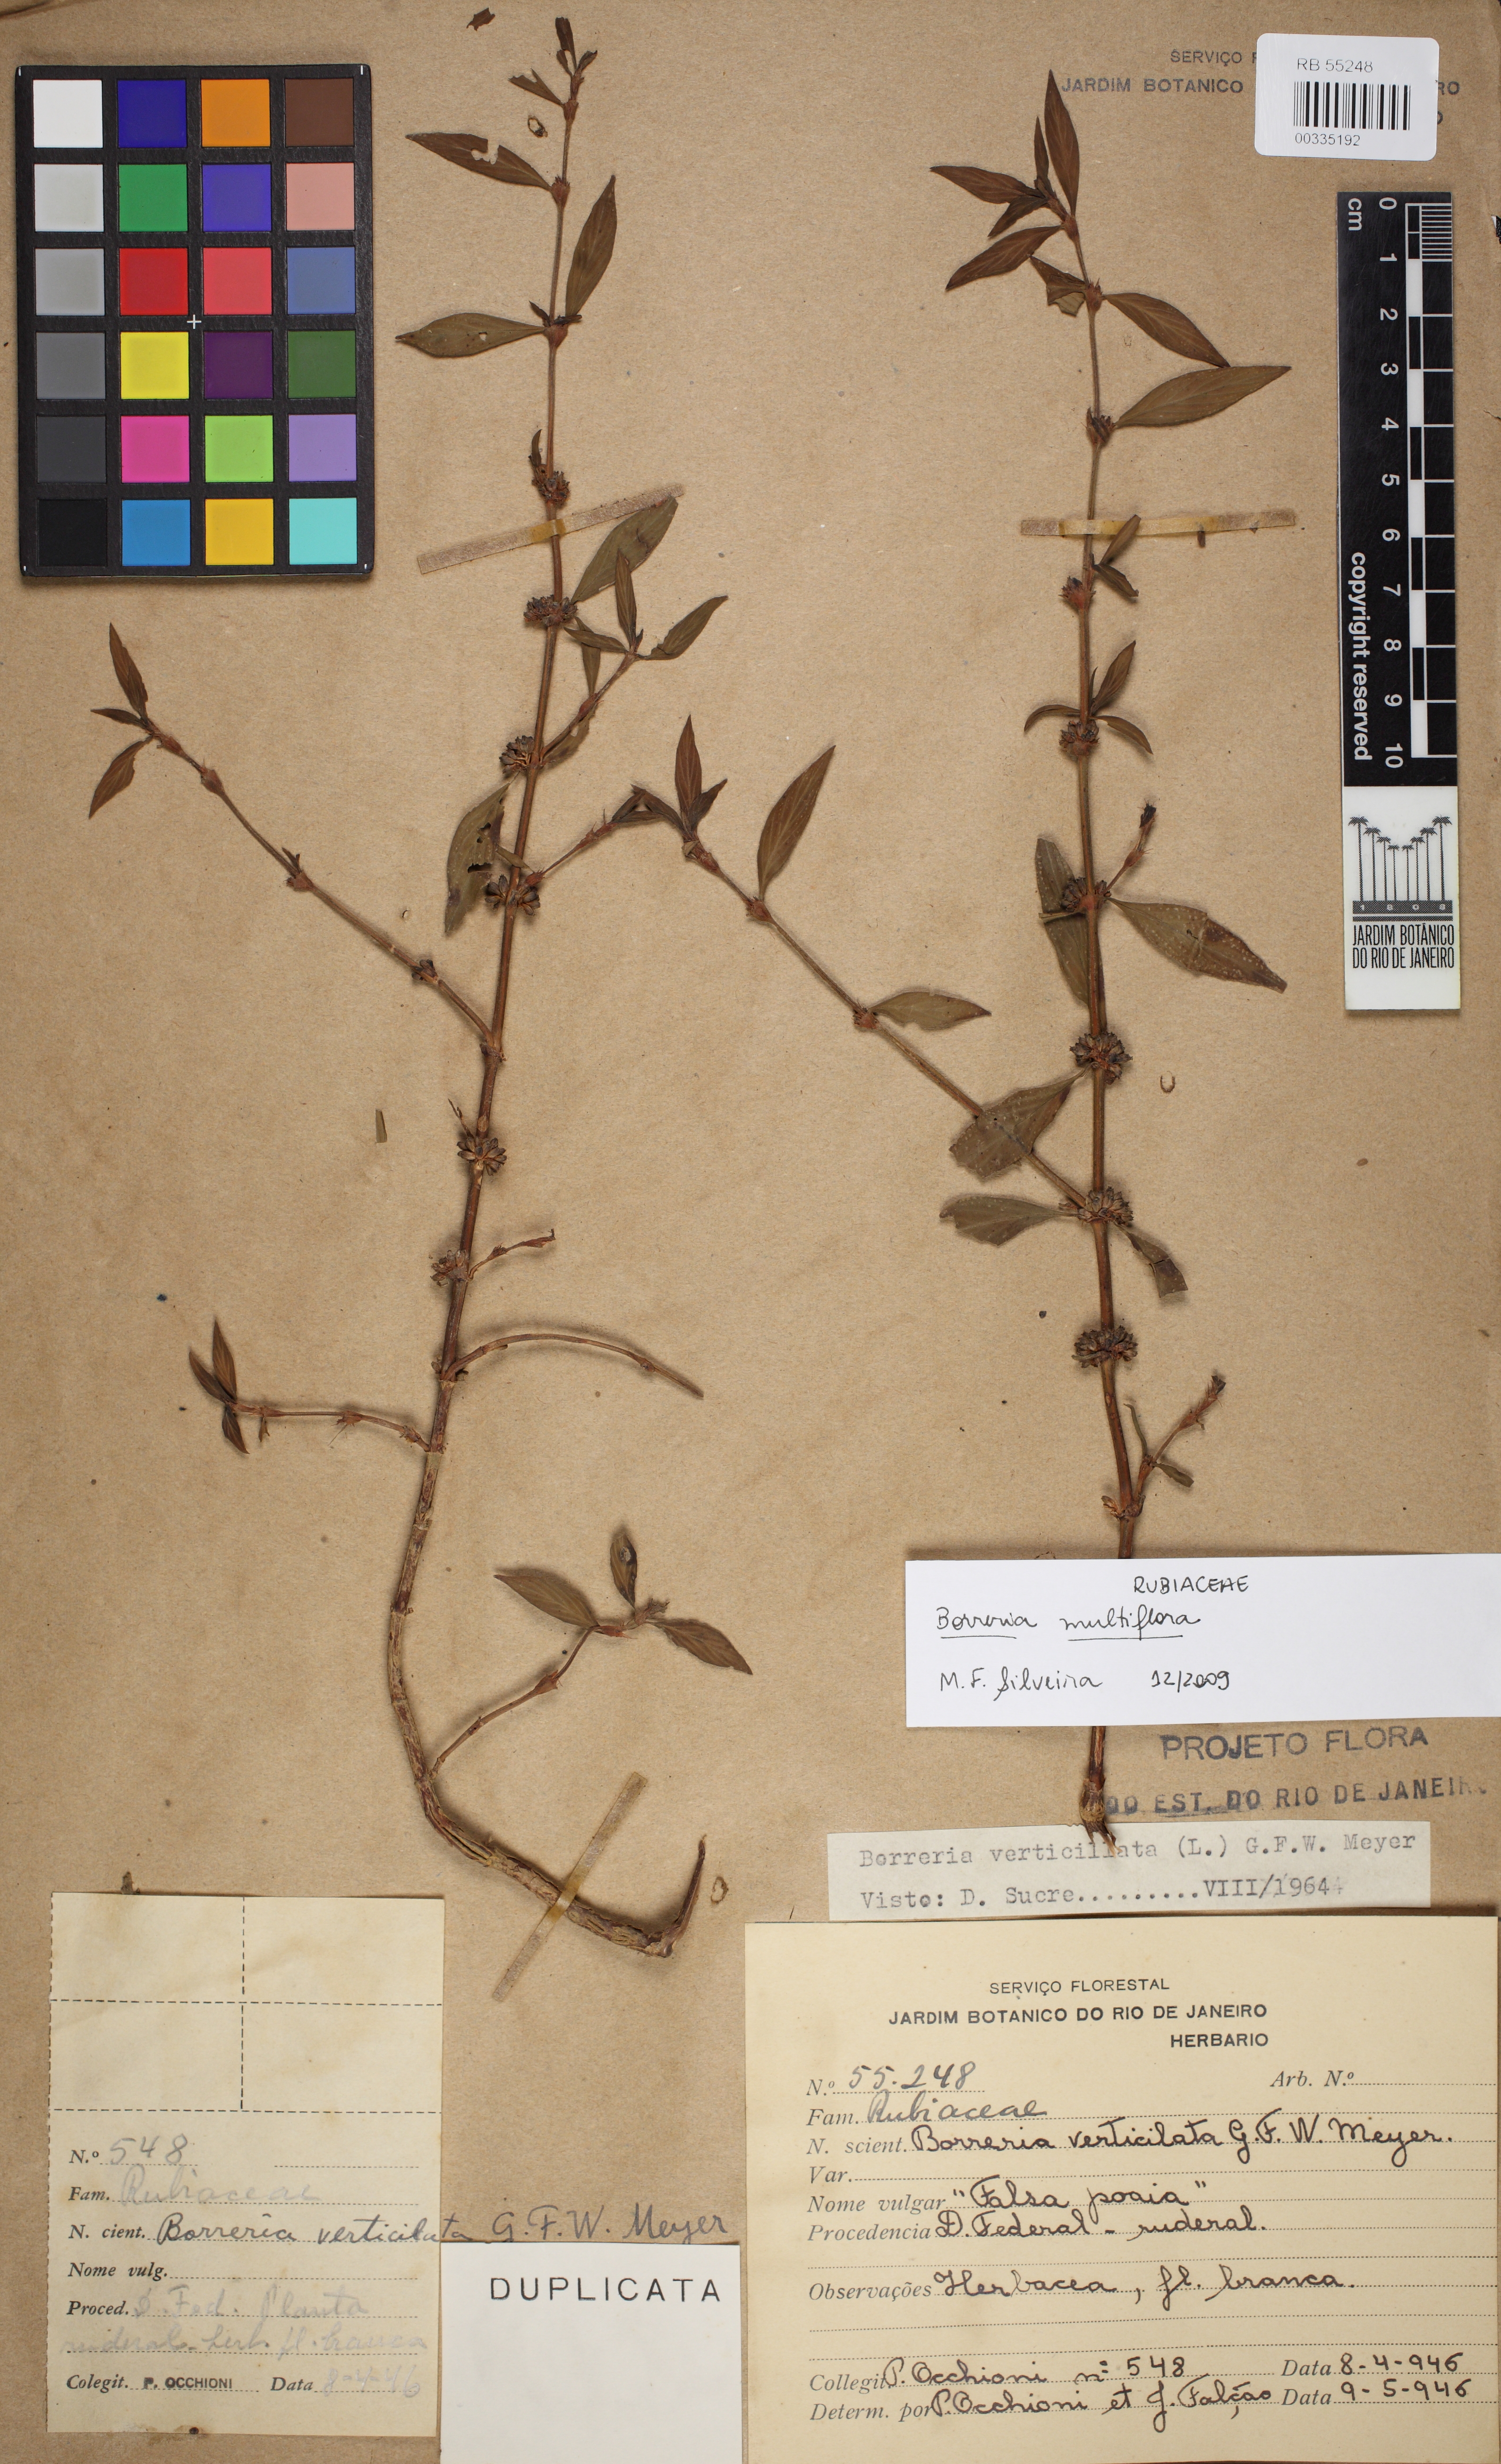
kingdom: Plantae
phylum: Tracheophyta
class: Magnoliopsida
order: Gentianales
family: Rubiaceae
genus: Spermacoce
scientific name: Spermacoce ocymifolia
